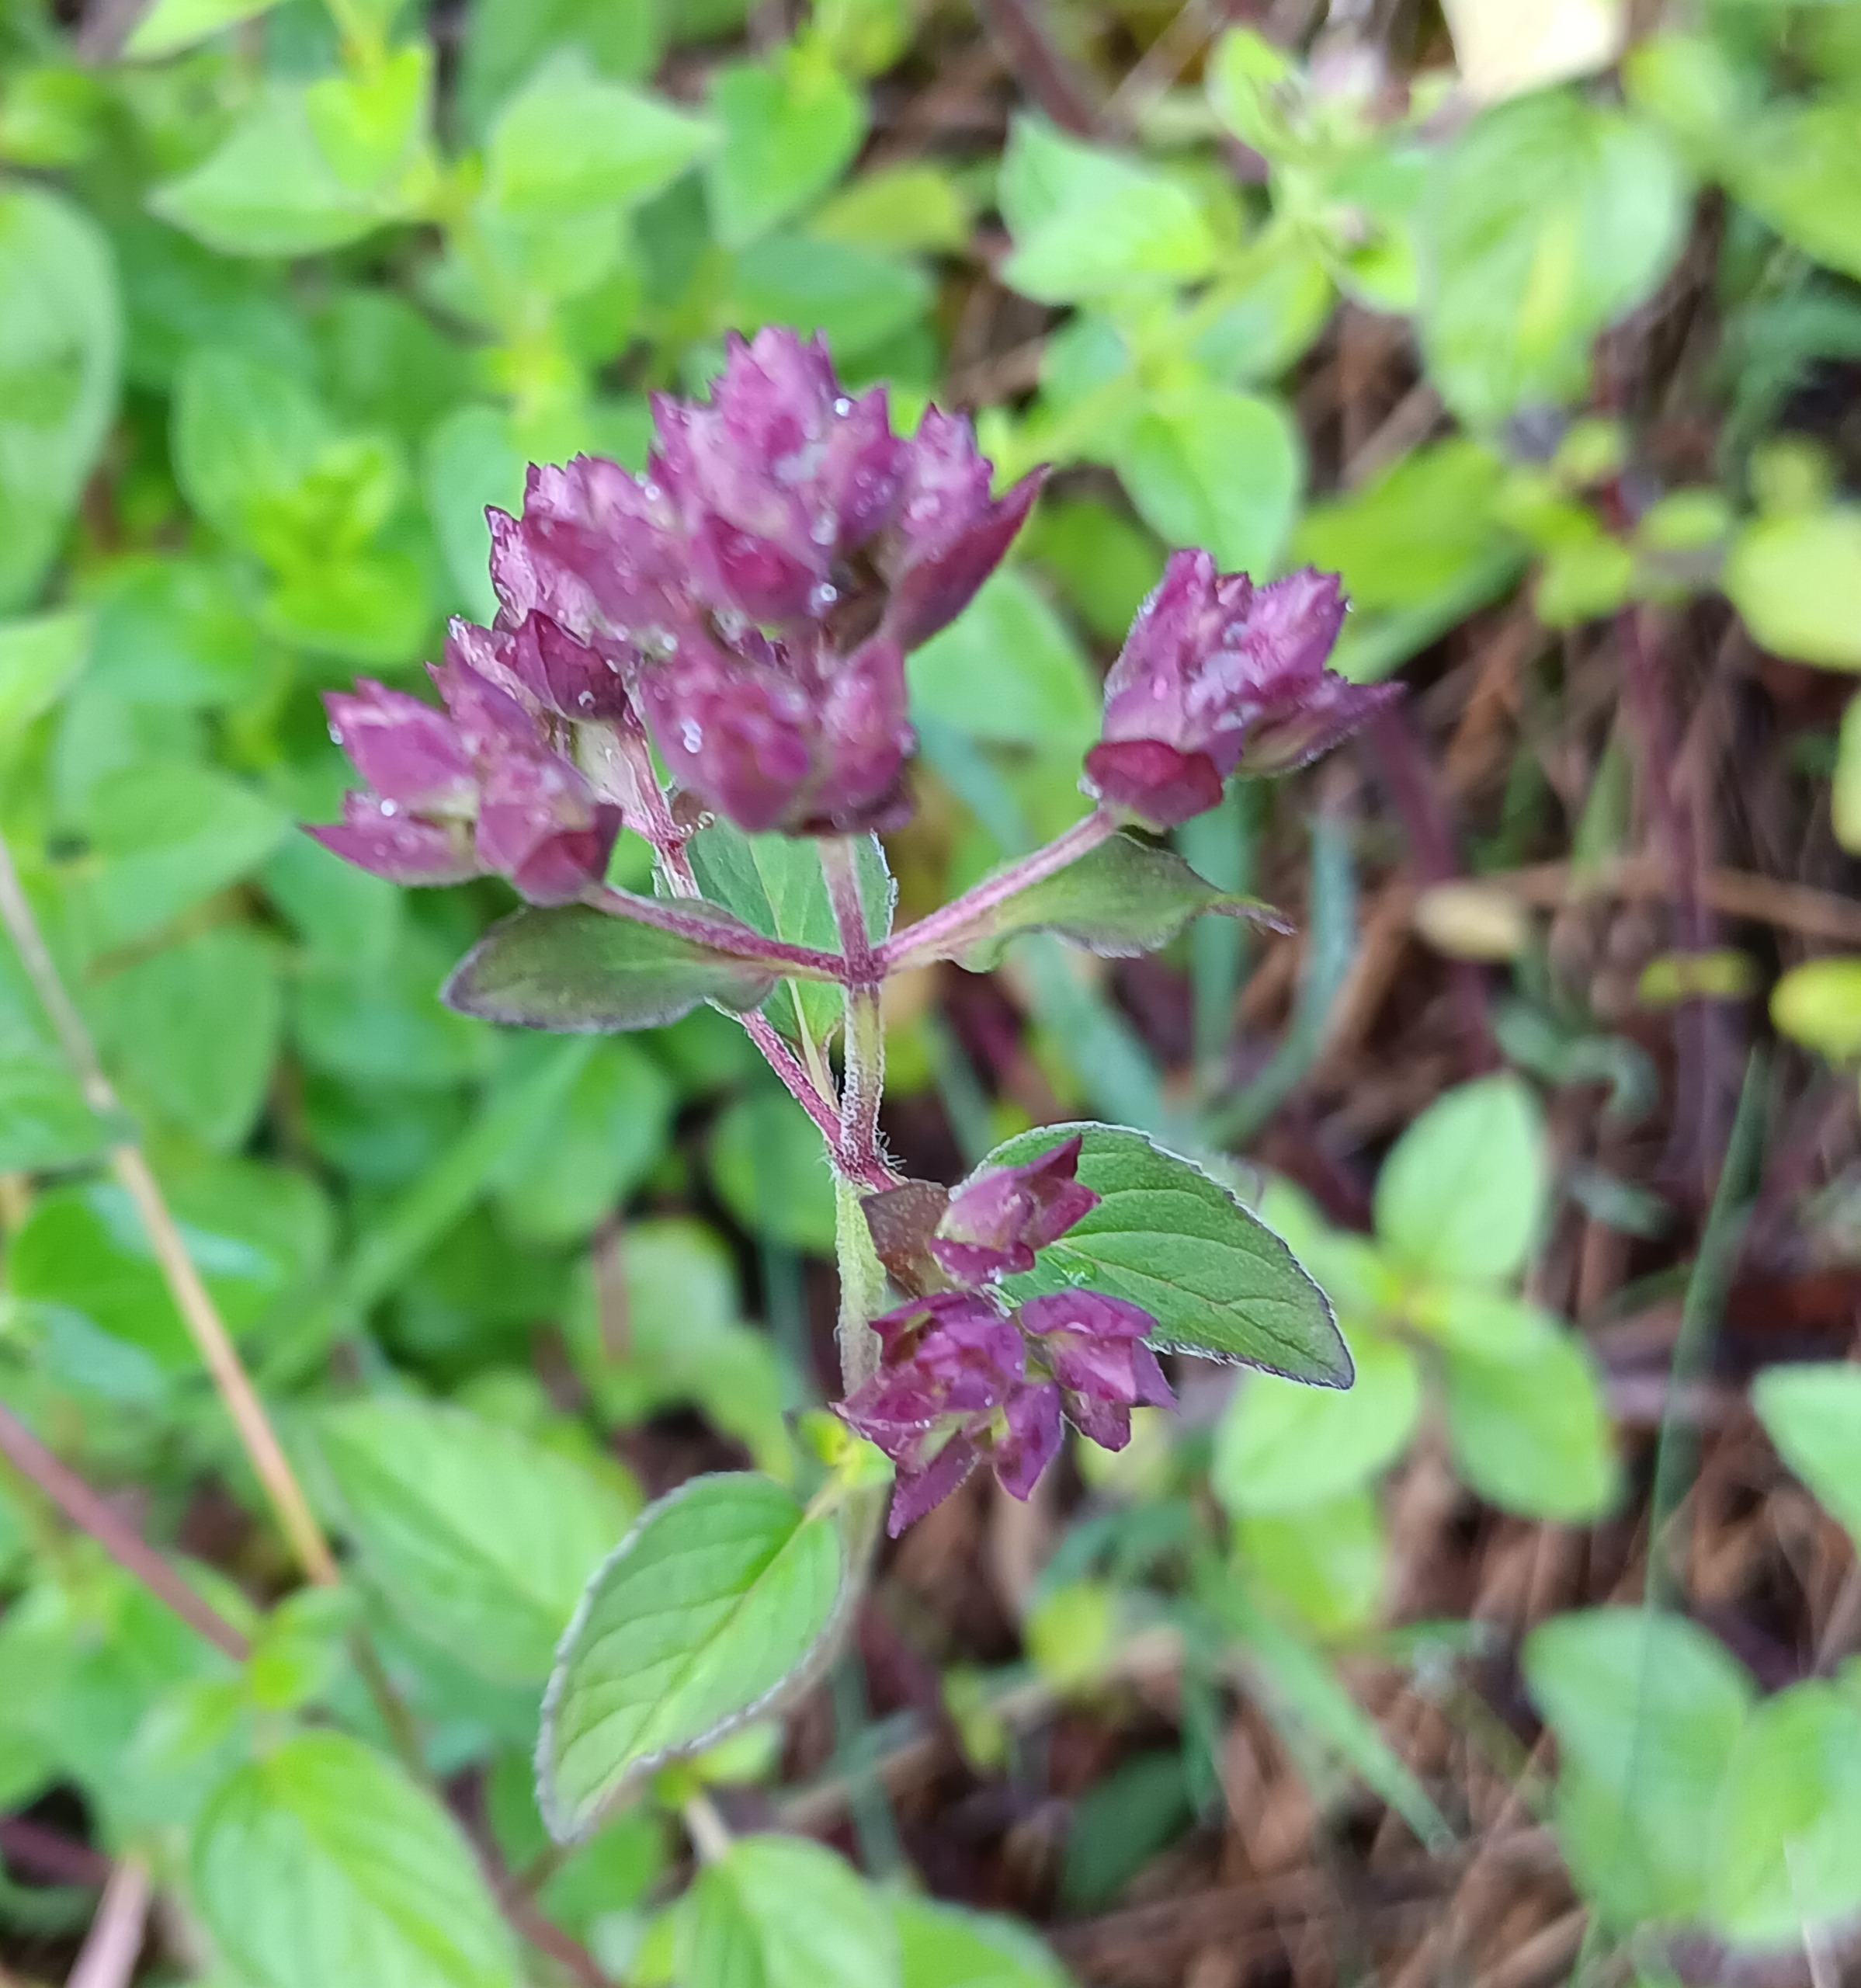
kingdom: Plantae
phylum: Tracheophyta
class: Magnoliopsida
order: Lamiales
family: Lamiaceae
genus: Origanum
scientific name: Origanum vulgare
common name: Merian
